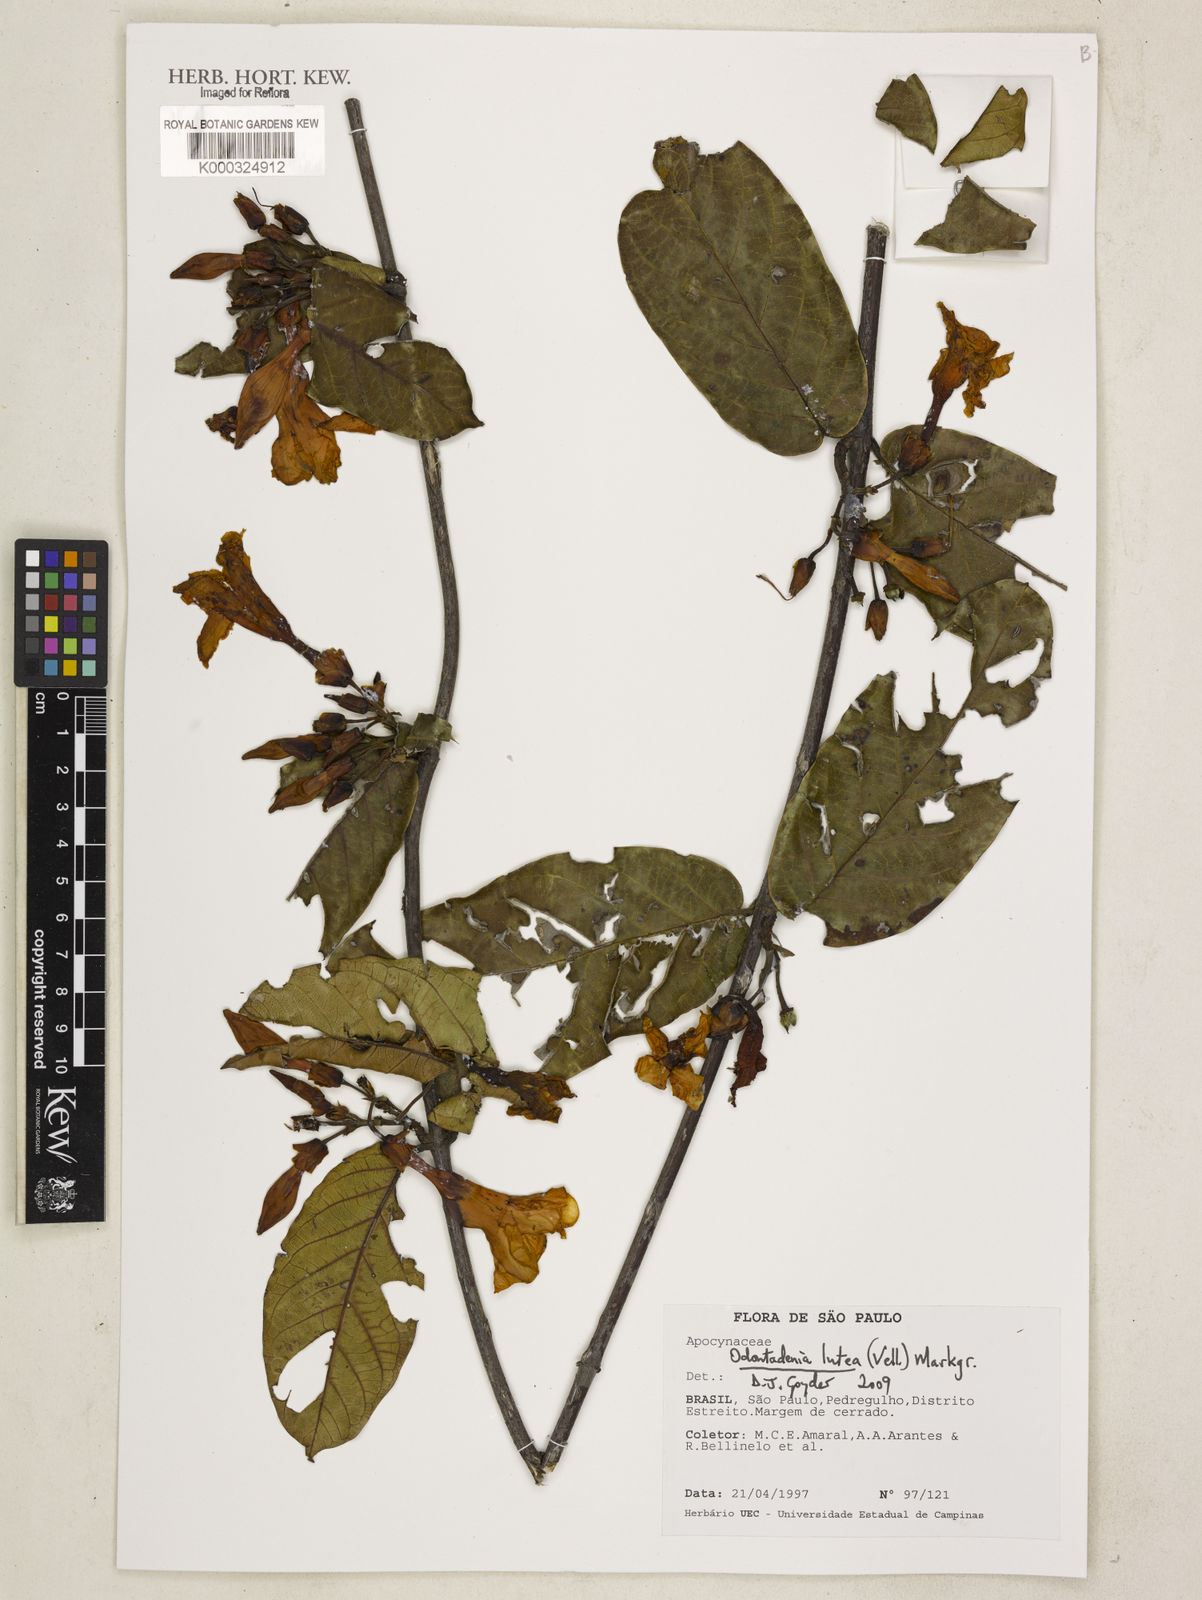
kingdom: Plantae
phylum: Tracheophyta
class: Magnoliopsida
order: Gentianales
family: Apocynaceae
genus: Odontadenia
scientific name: Odontadenia lutea
